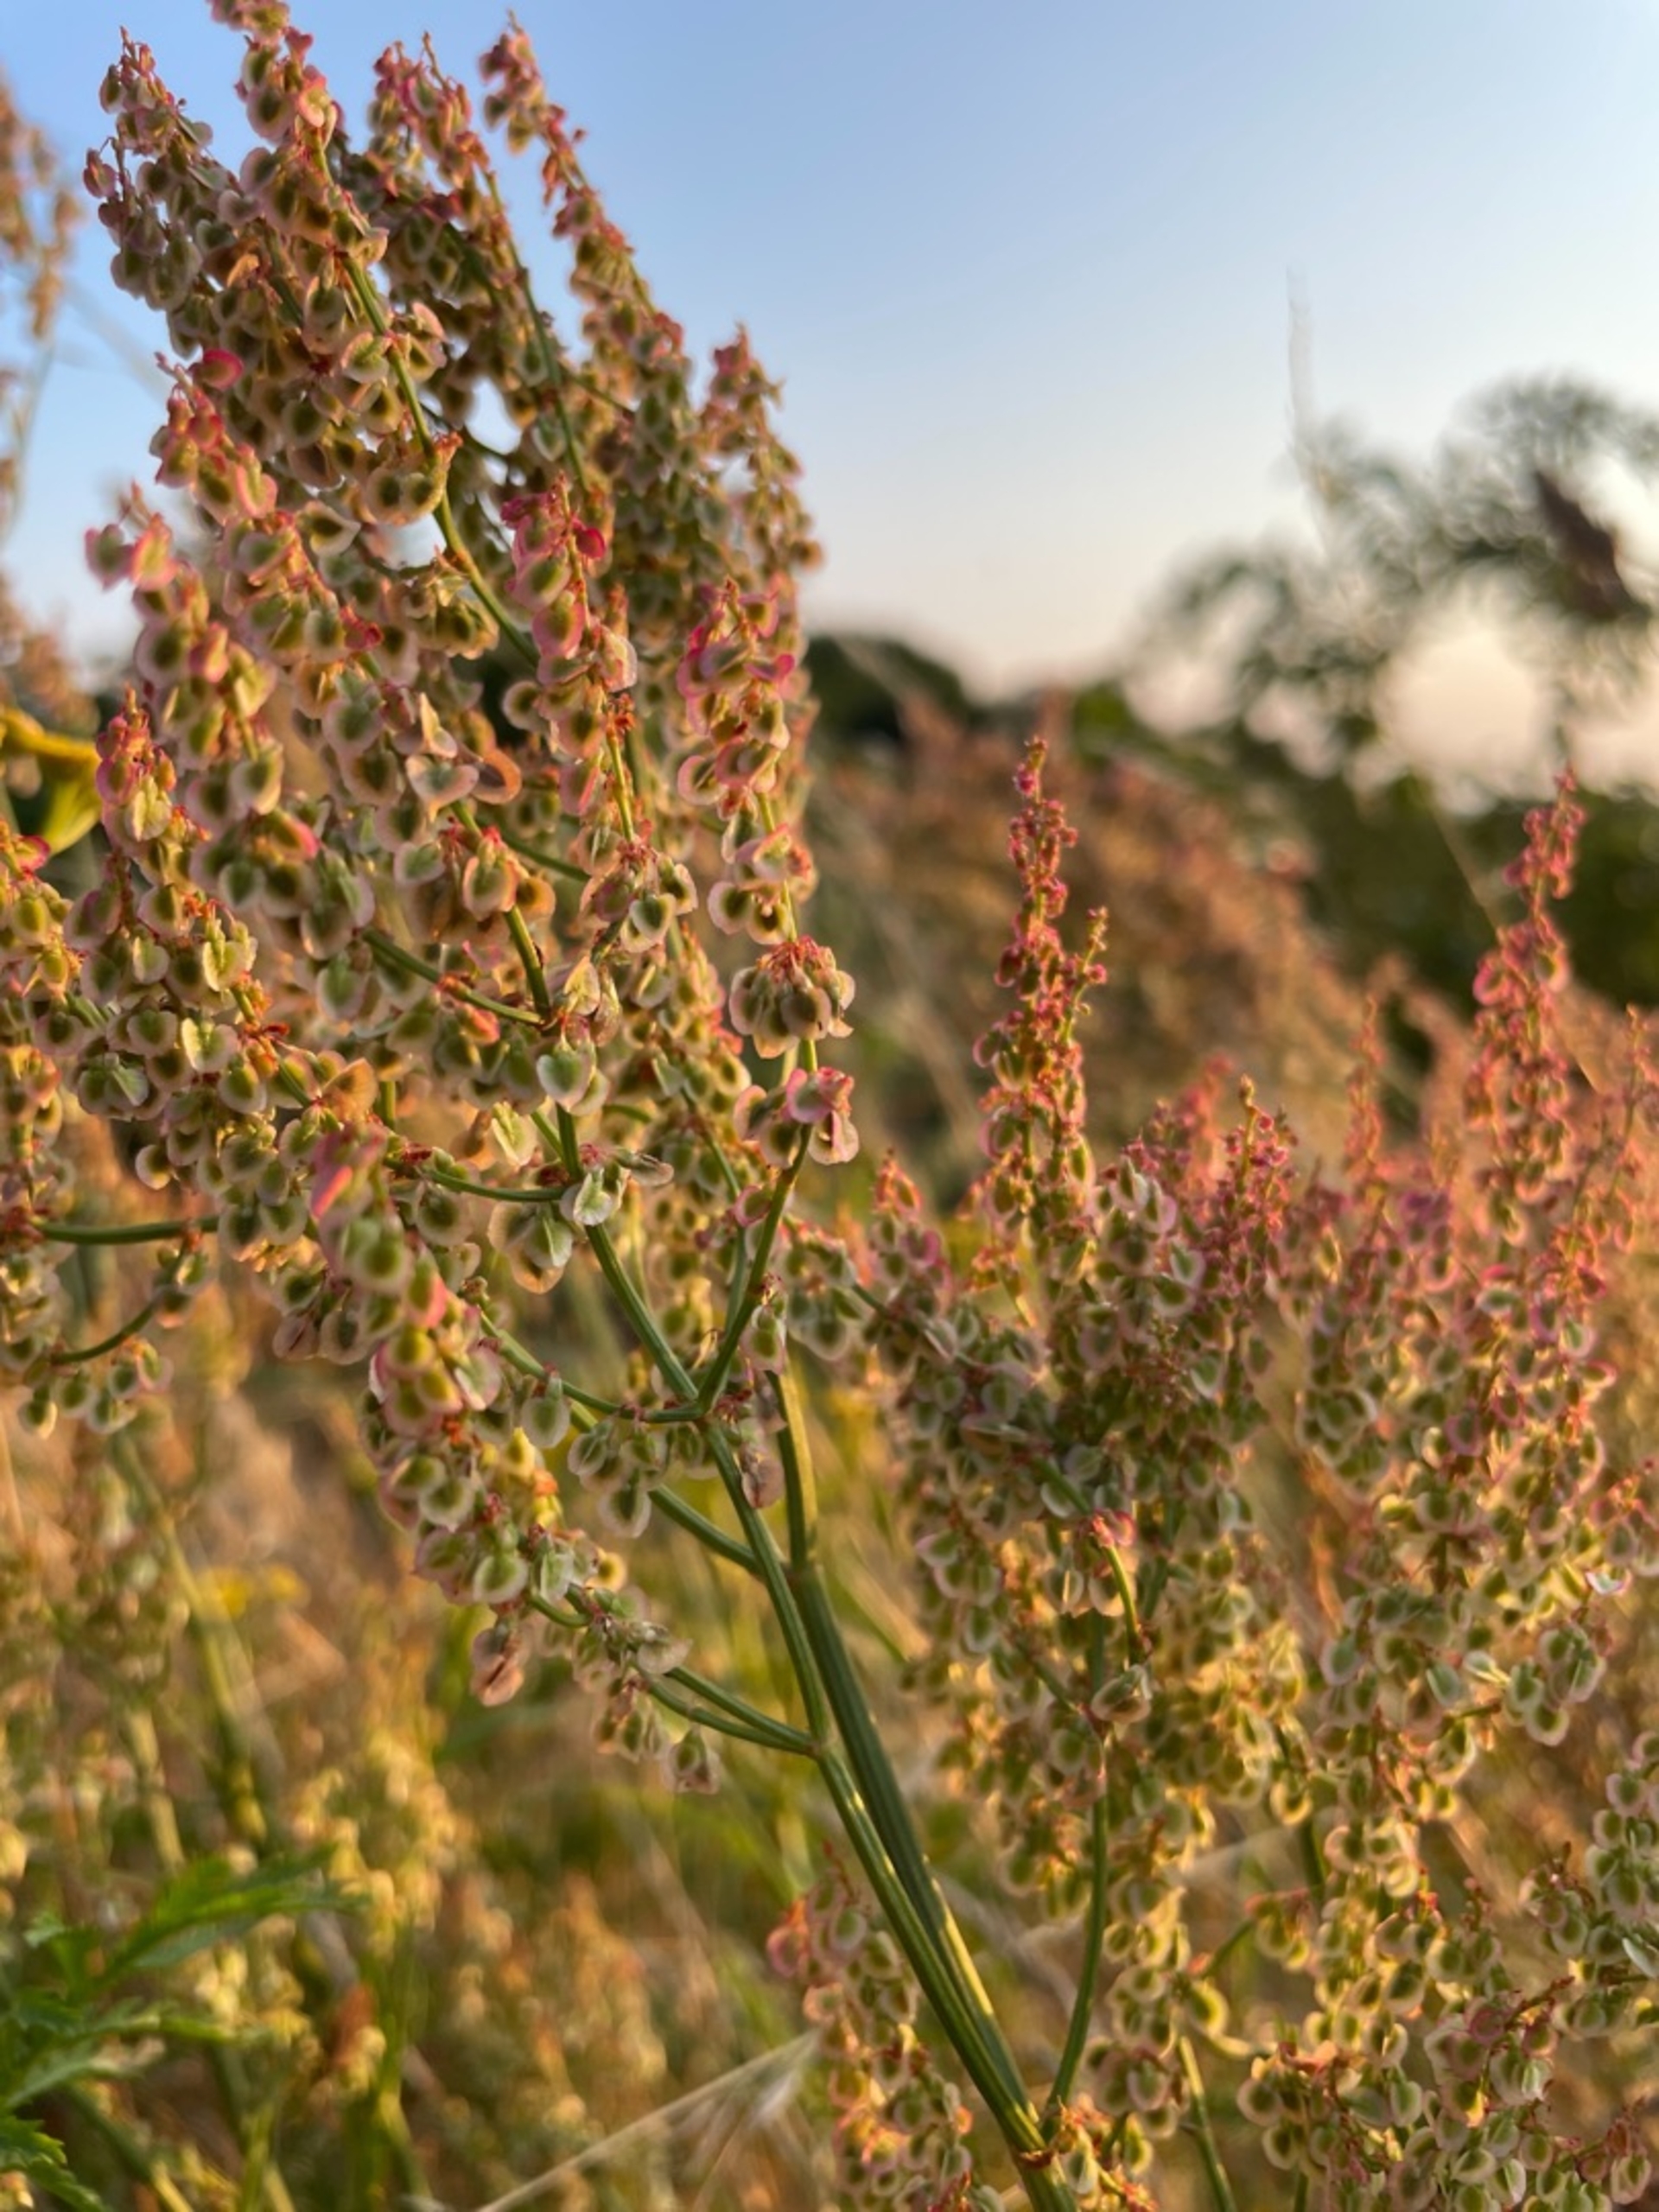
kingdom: Plantae
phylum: Tracheophyta
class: Magnoliopsida
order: Caryophyllales
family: Polygonaceae
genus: Rumex
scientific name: Rumex thyrsiflorus
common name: Dusk-syre
